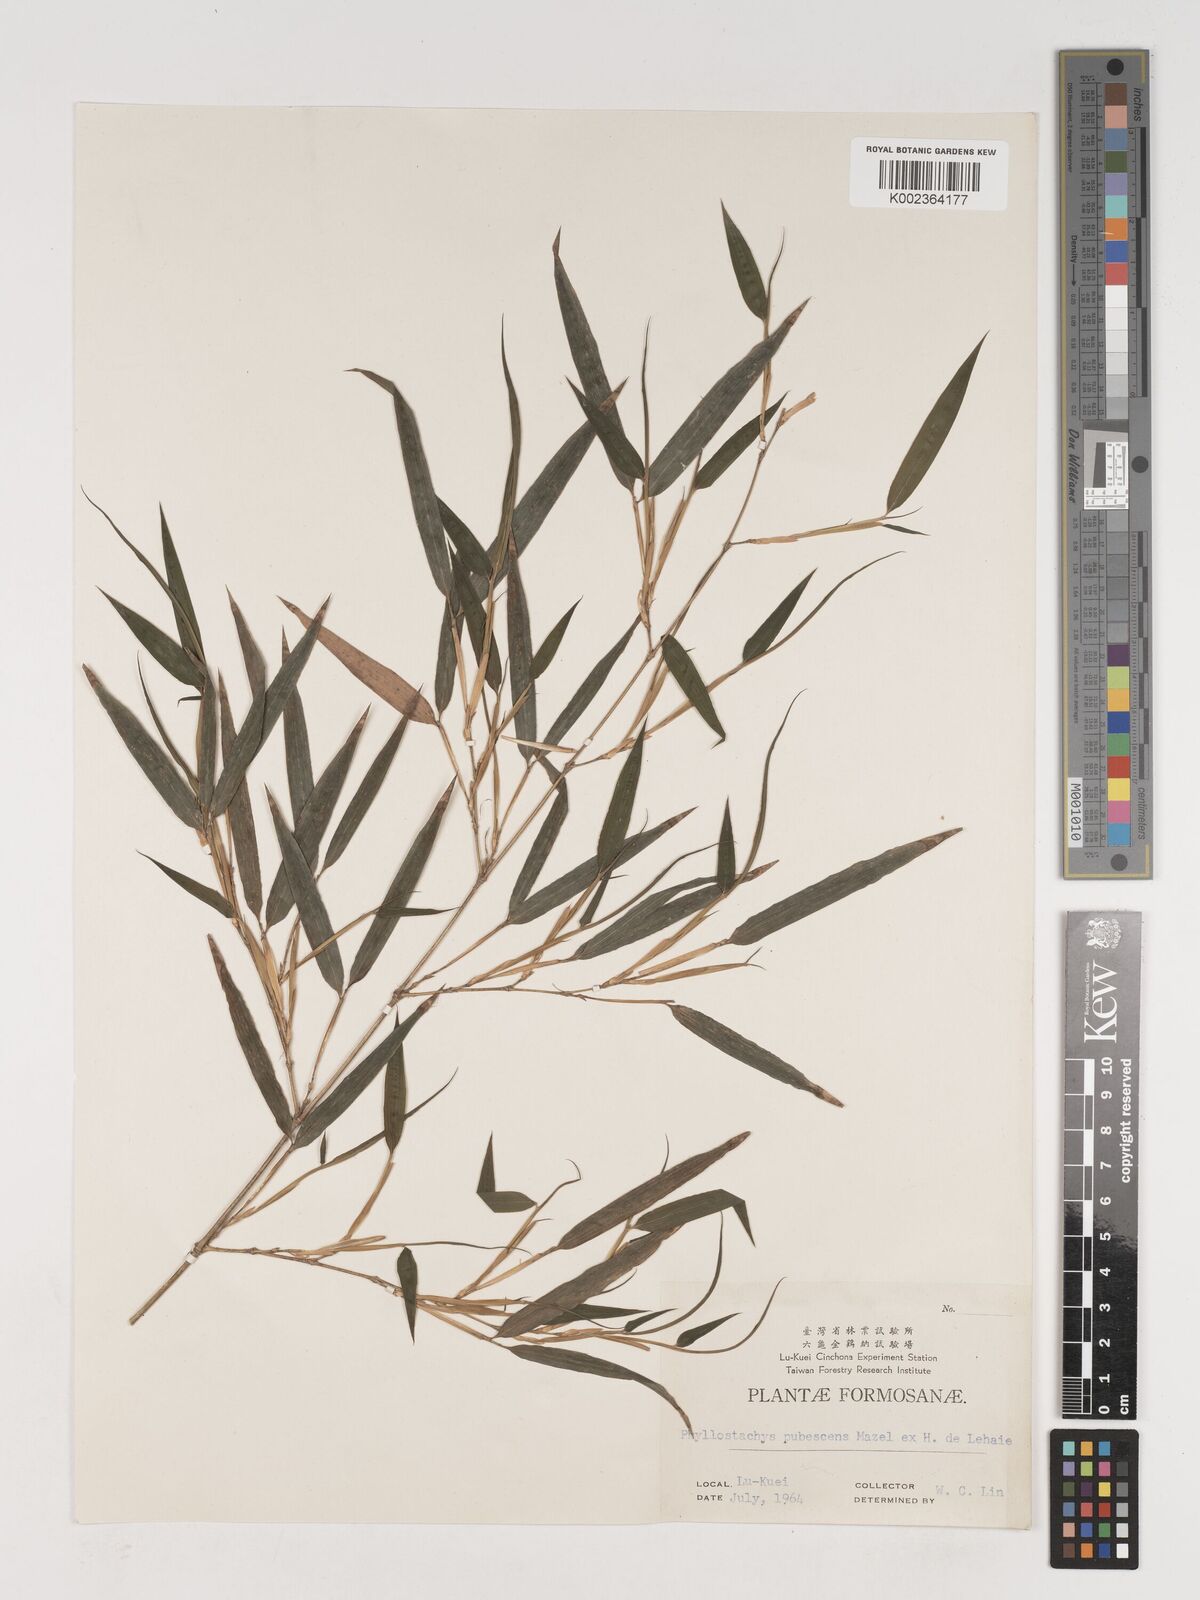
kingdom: Plantae
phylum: Tracheophyta
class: Liliopsida
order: Poales
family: Poaceae
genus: Phyllostachys
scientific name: Phyllostachys nidularia
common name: Broom bamboo
